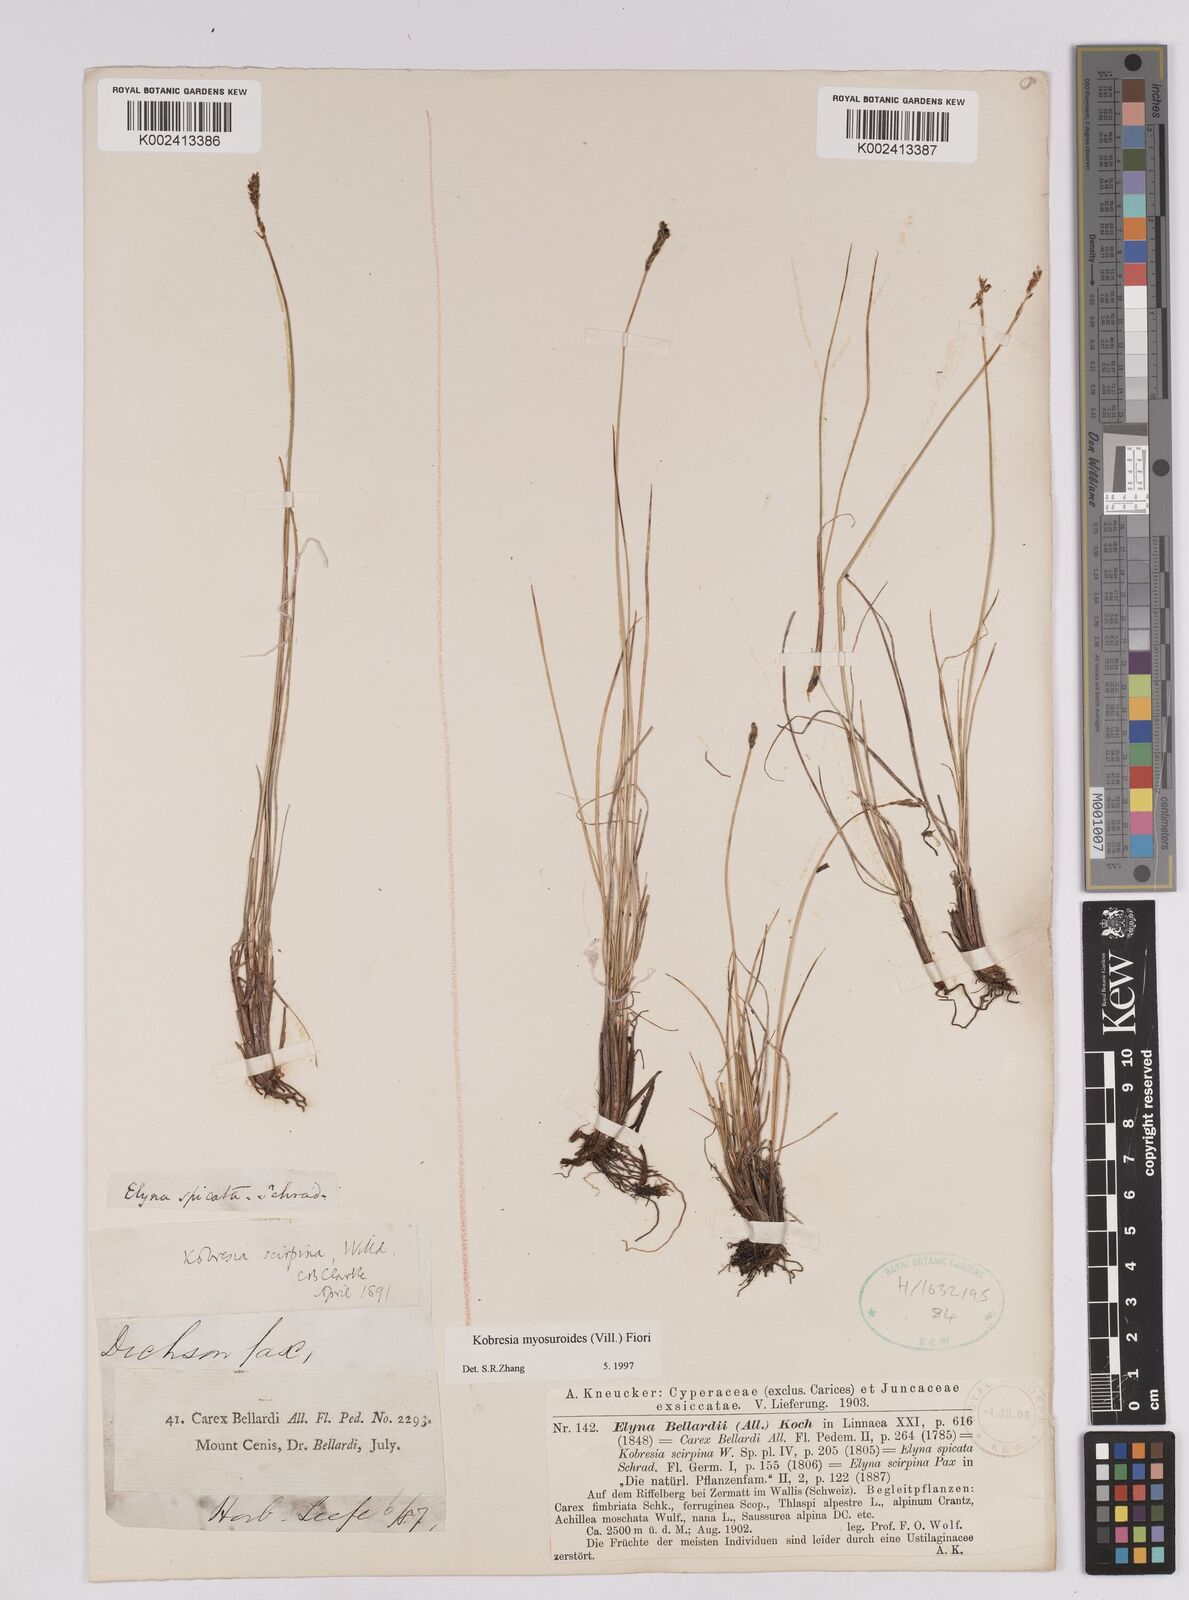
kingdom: Plantae
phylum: Tracheophyta
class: Liliopsida
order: Poales
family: Cyperaceae
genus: Carex
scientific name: Carex myosuroides
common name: Bellard's bog sedge
